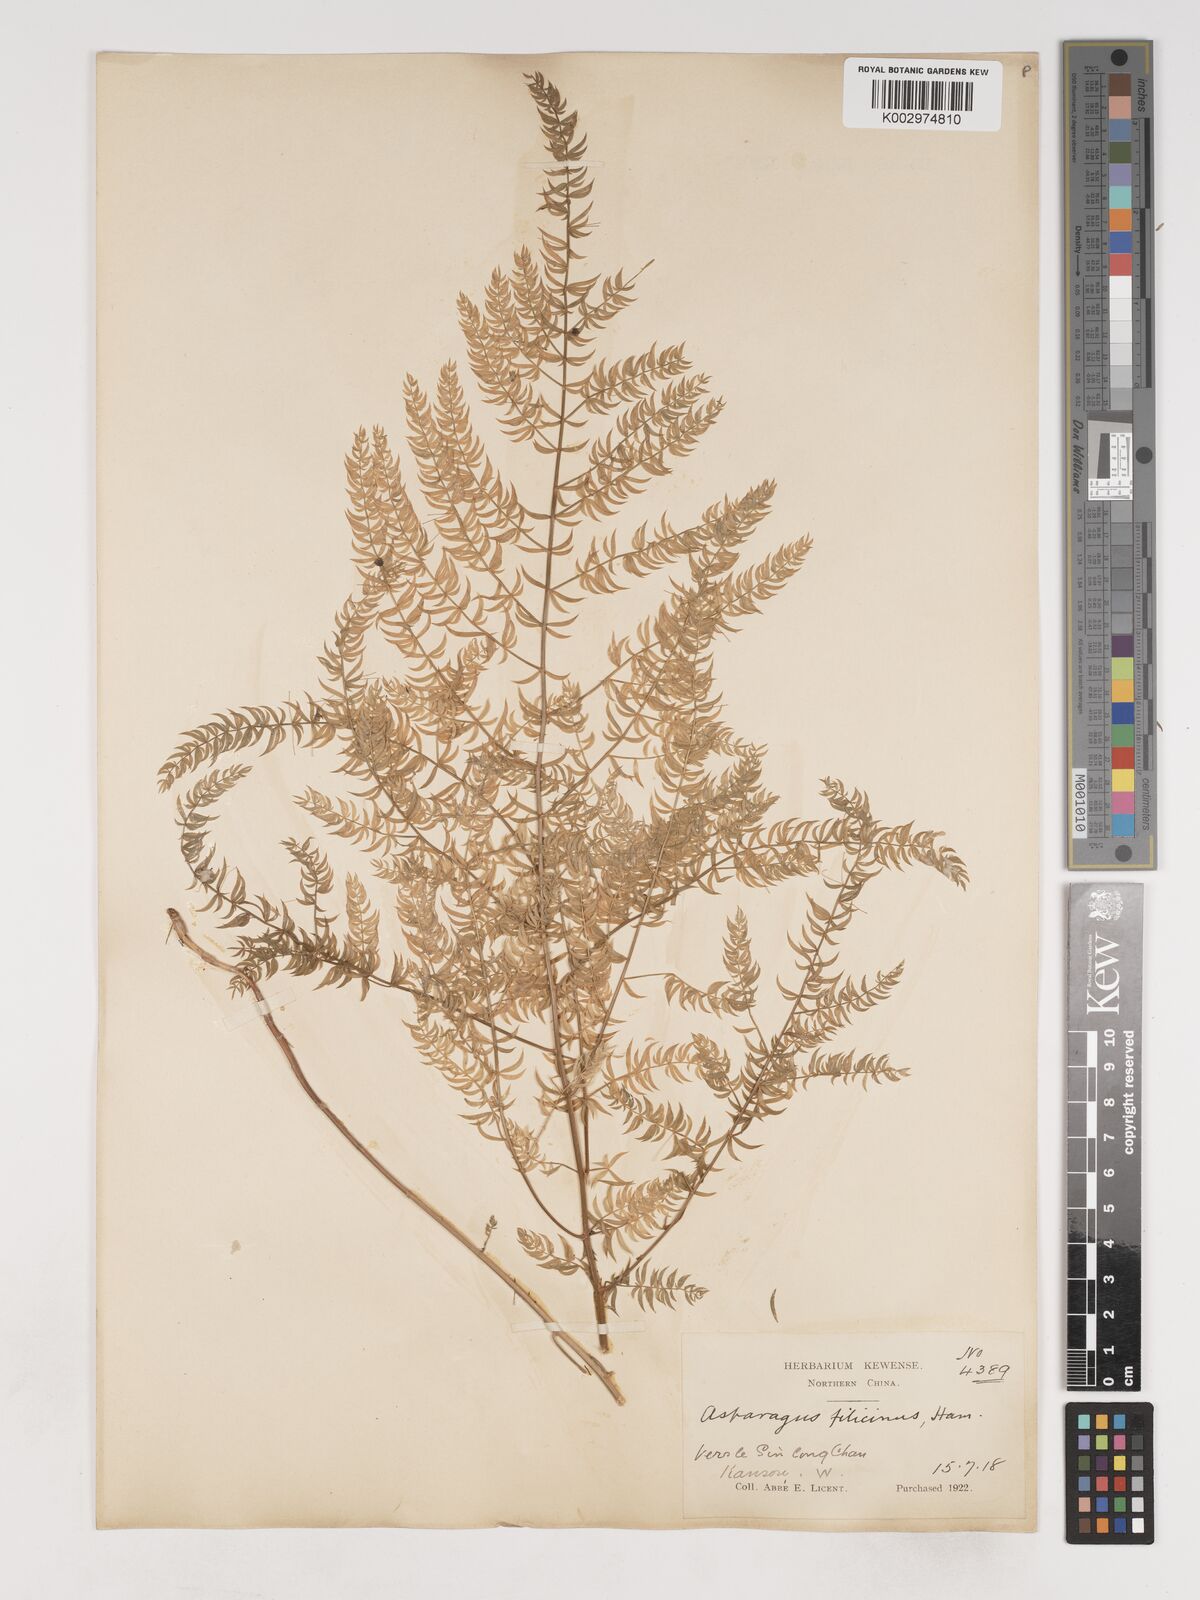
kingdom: Plantae
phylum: Tracheophyta
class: Liliopsida
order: Asparagales
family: Asparagaceae
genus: Asparagus
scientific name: Asparagus filicinus
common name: Fern asparagus
